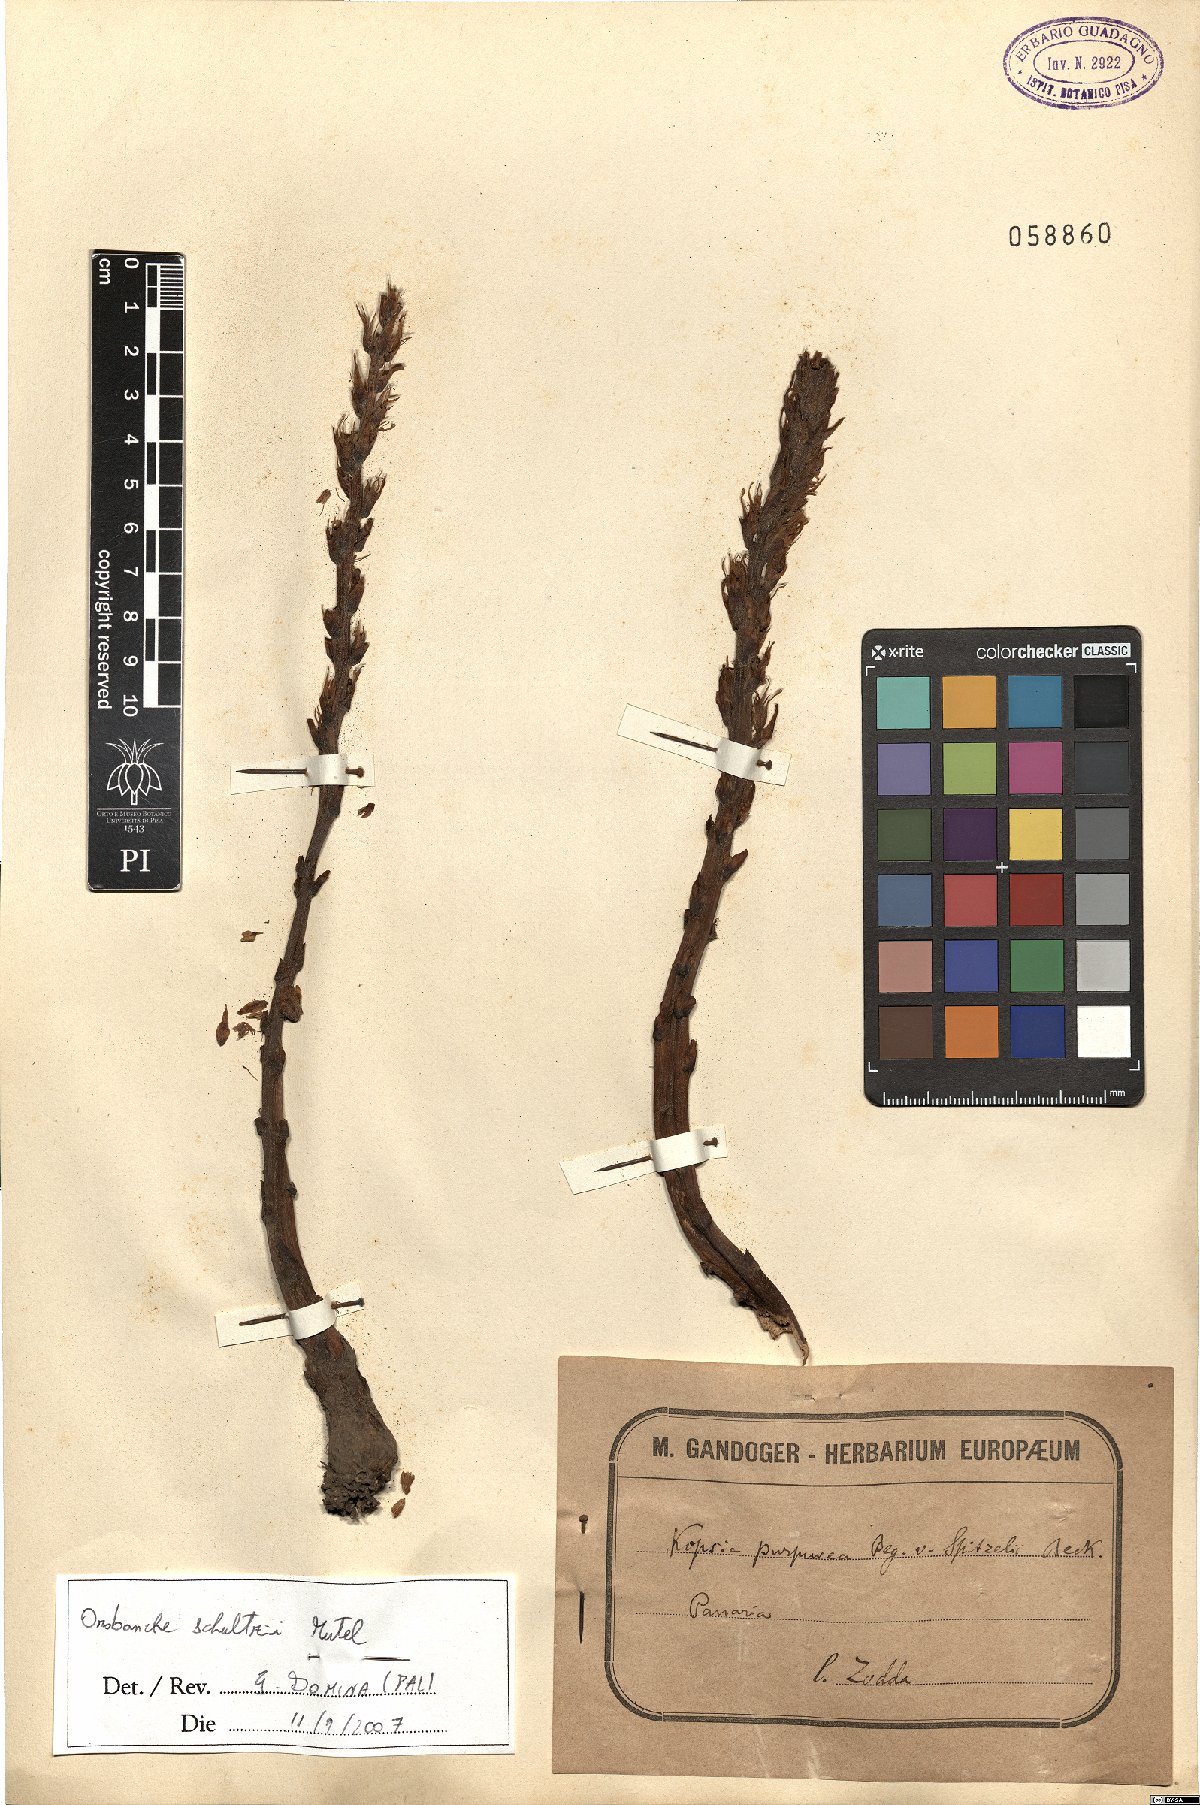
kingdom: Plantae
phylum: Tracheophyta
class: Magnoliopsida
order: Lamiales
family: Orobanchaceae
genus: Phelipanche
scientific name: Phelipanche schultzii
